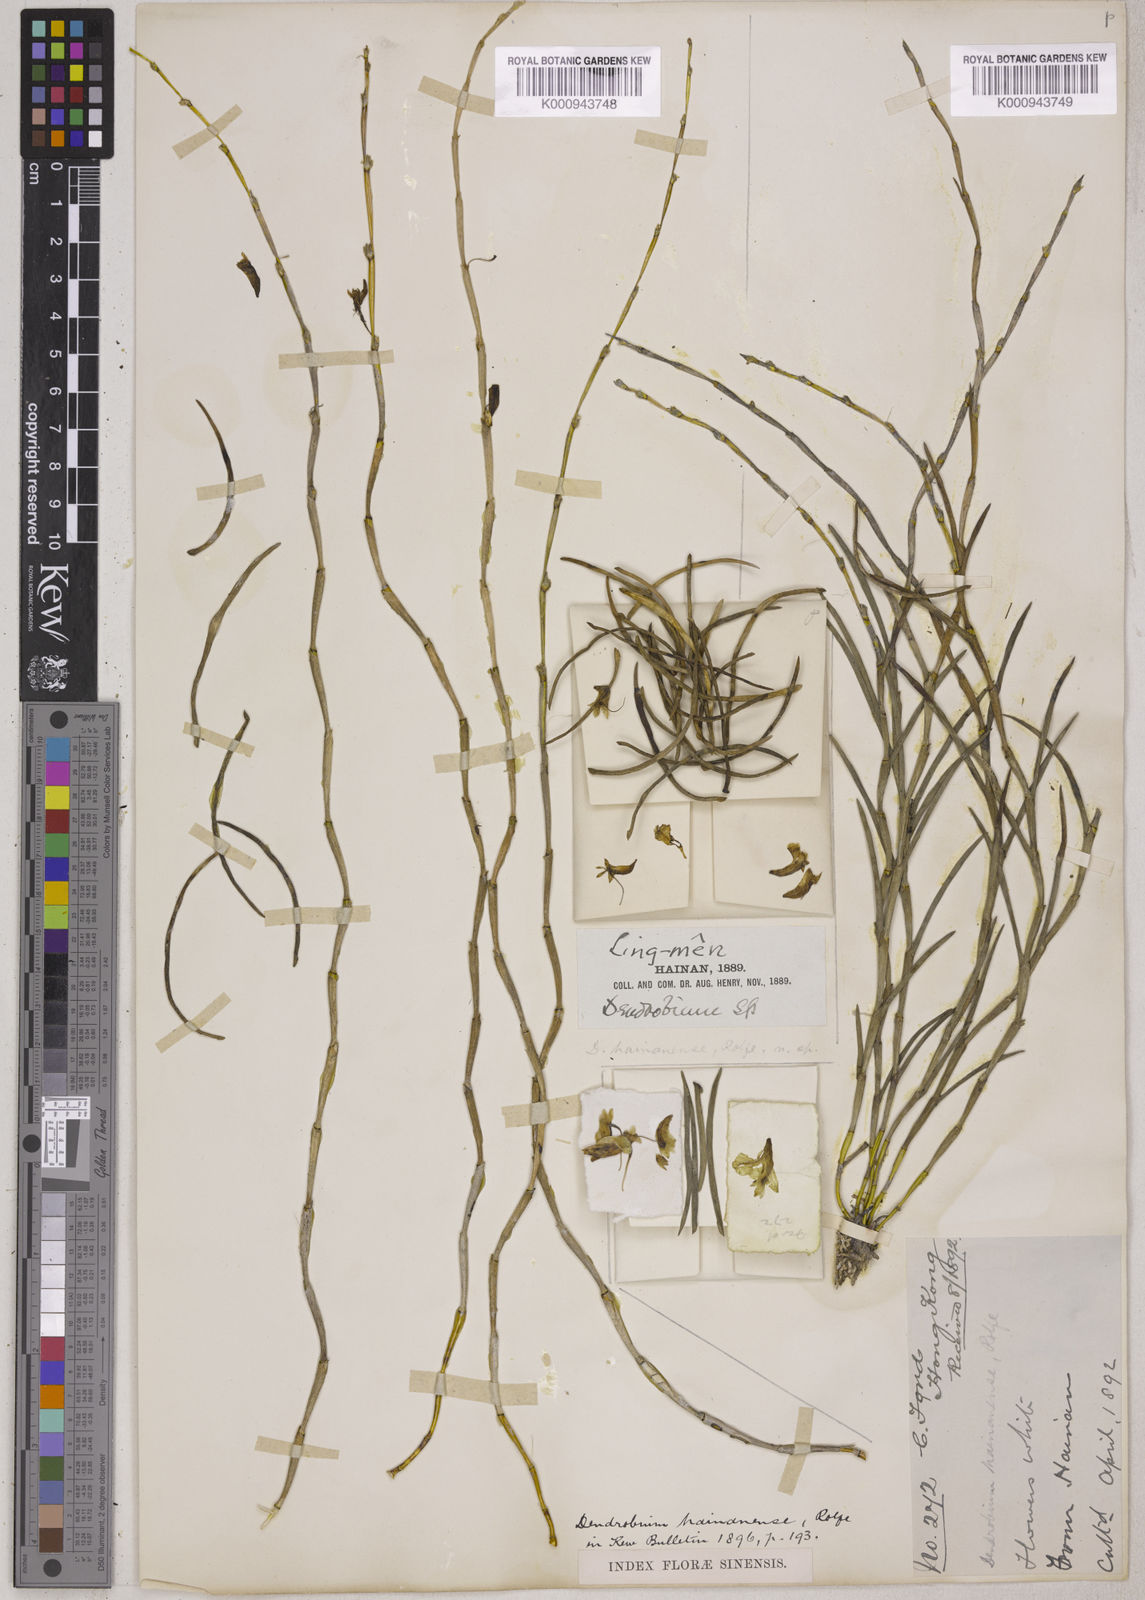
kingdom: Plantae
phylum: Tracheophyta
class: Liliopsida
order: Asparagales
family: Orchidaceae
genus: Dendrobium
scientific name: Dendrobium hainanense
